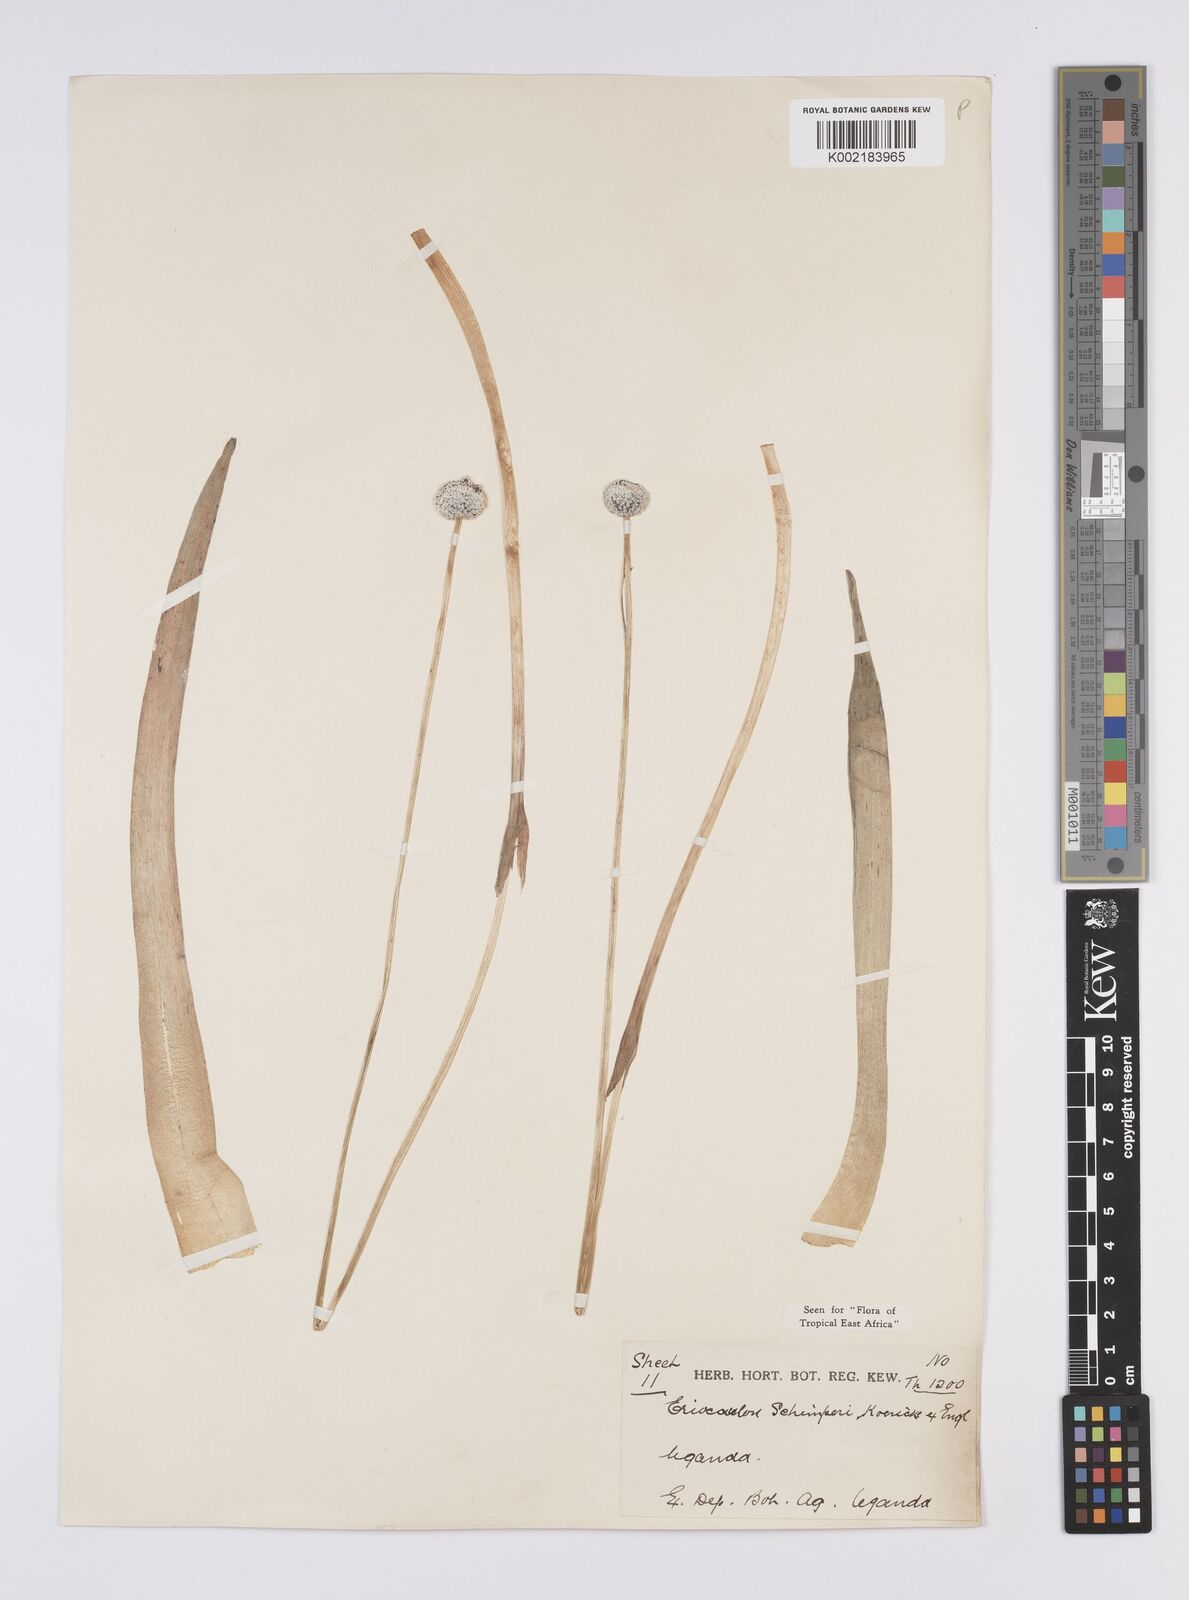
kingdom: Plantae
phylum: Tracheophyta
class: Liliopsida
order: Poales
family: Eriocaulaceae
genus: Eriocaulon
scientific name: Eriocaulon schimperi
